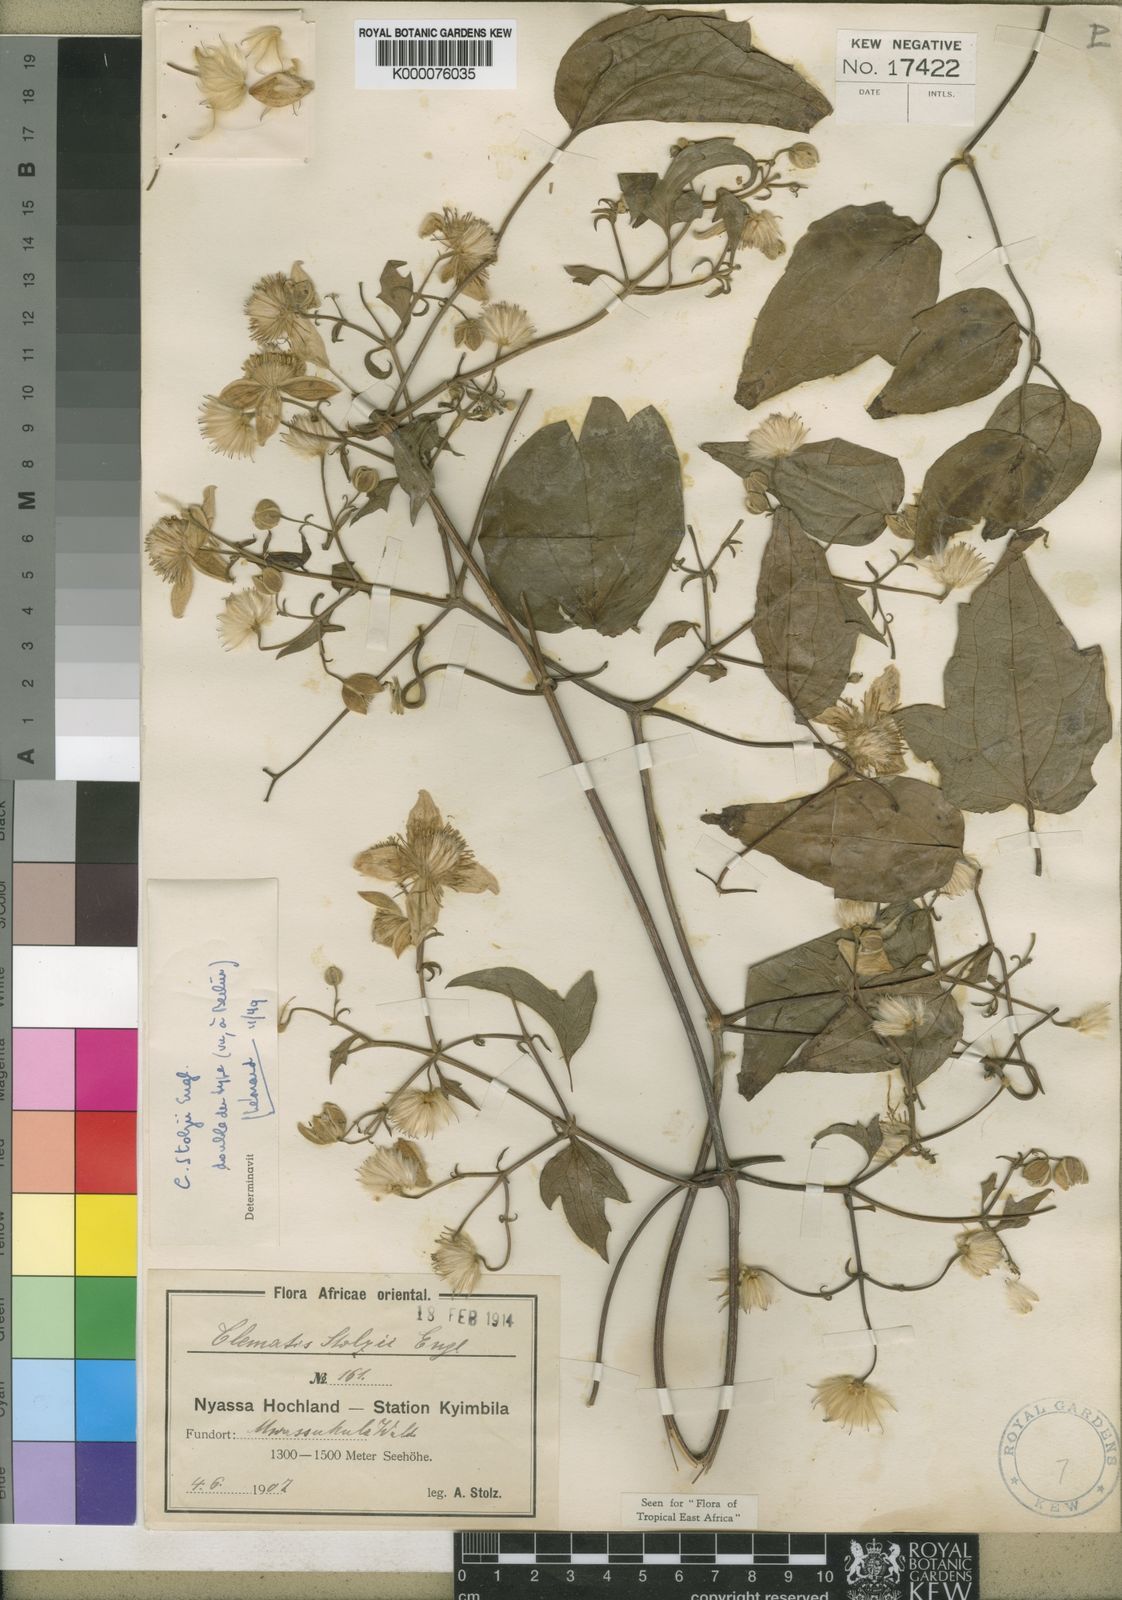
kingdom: Plantae
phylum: Tracheophyta
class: Magnoliopsida
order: Ranunculales
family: Ranunculaceae
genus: Clematis
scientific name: Clematis viridiflora
